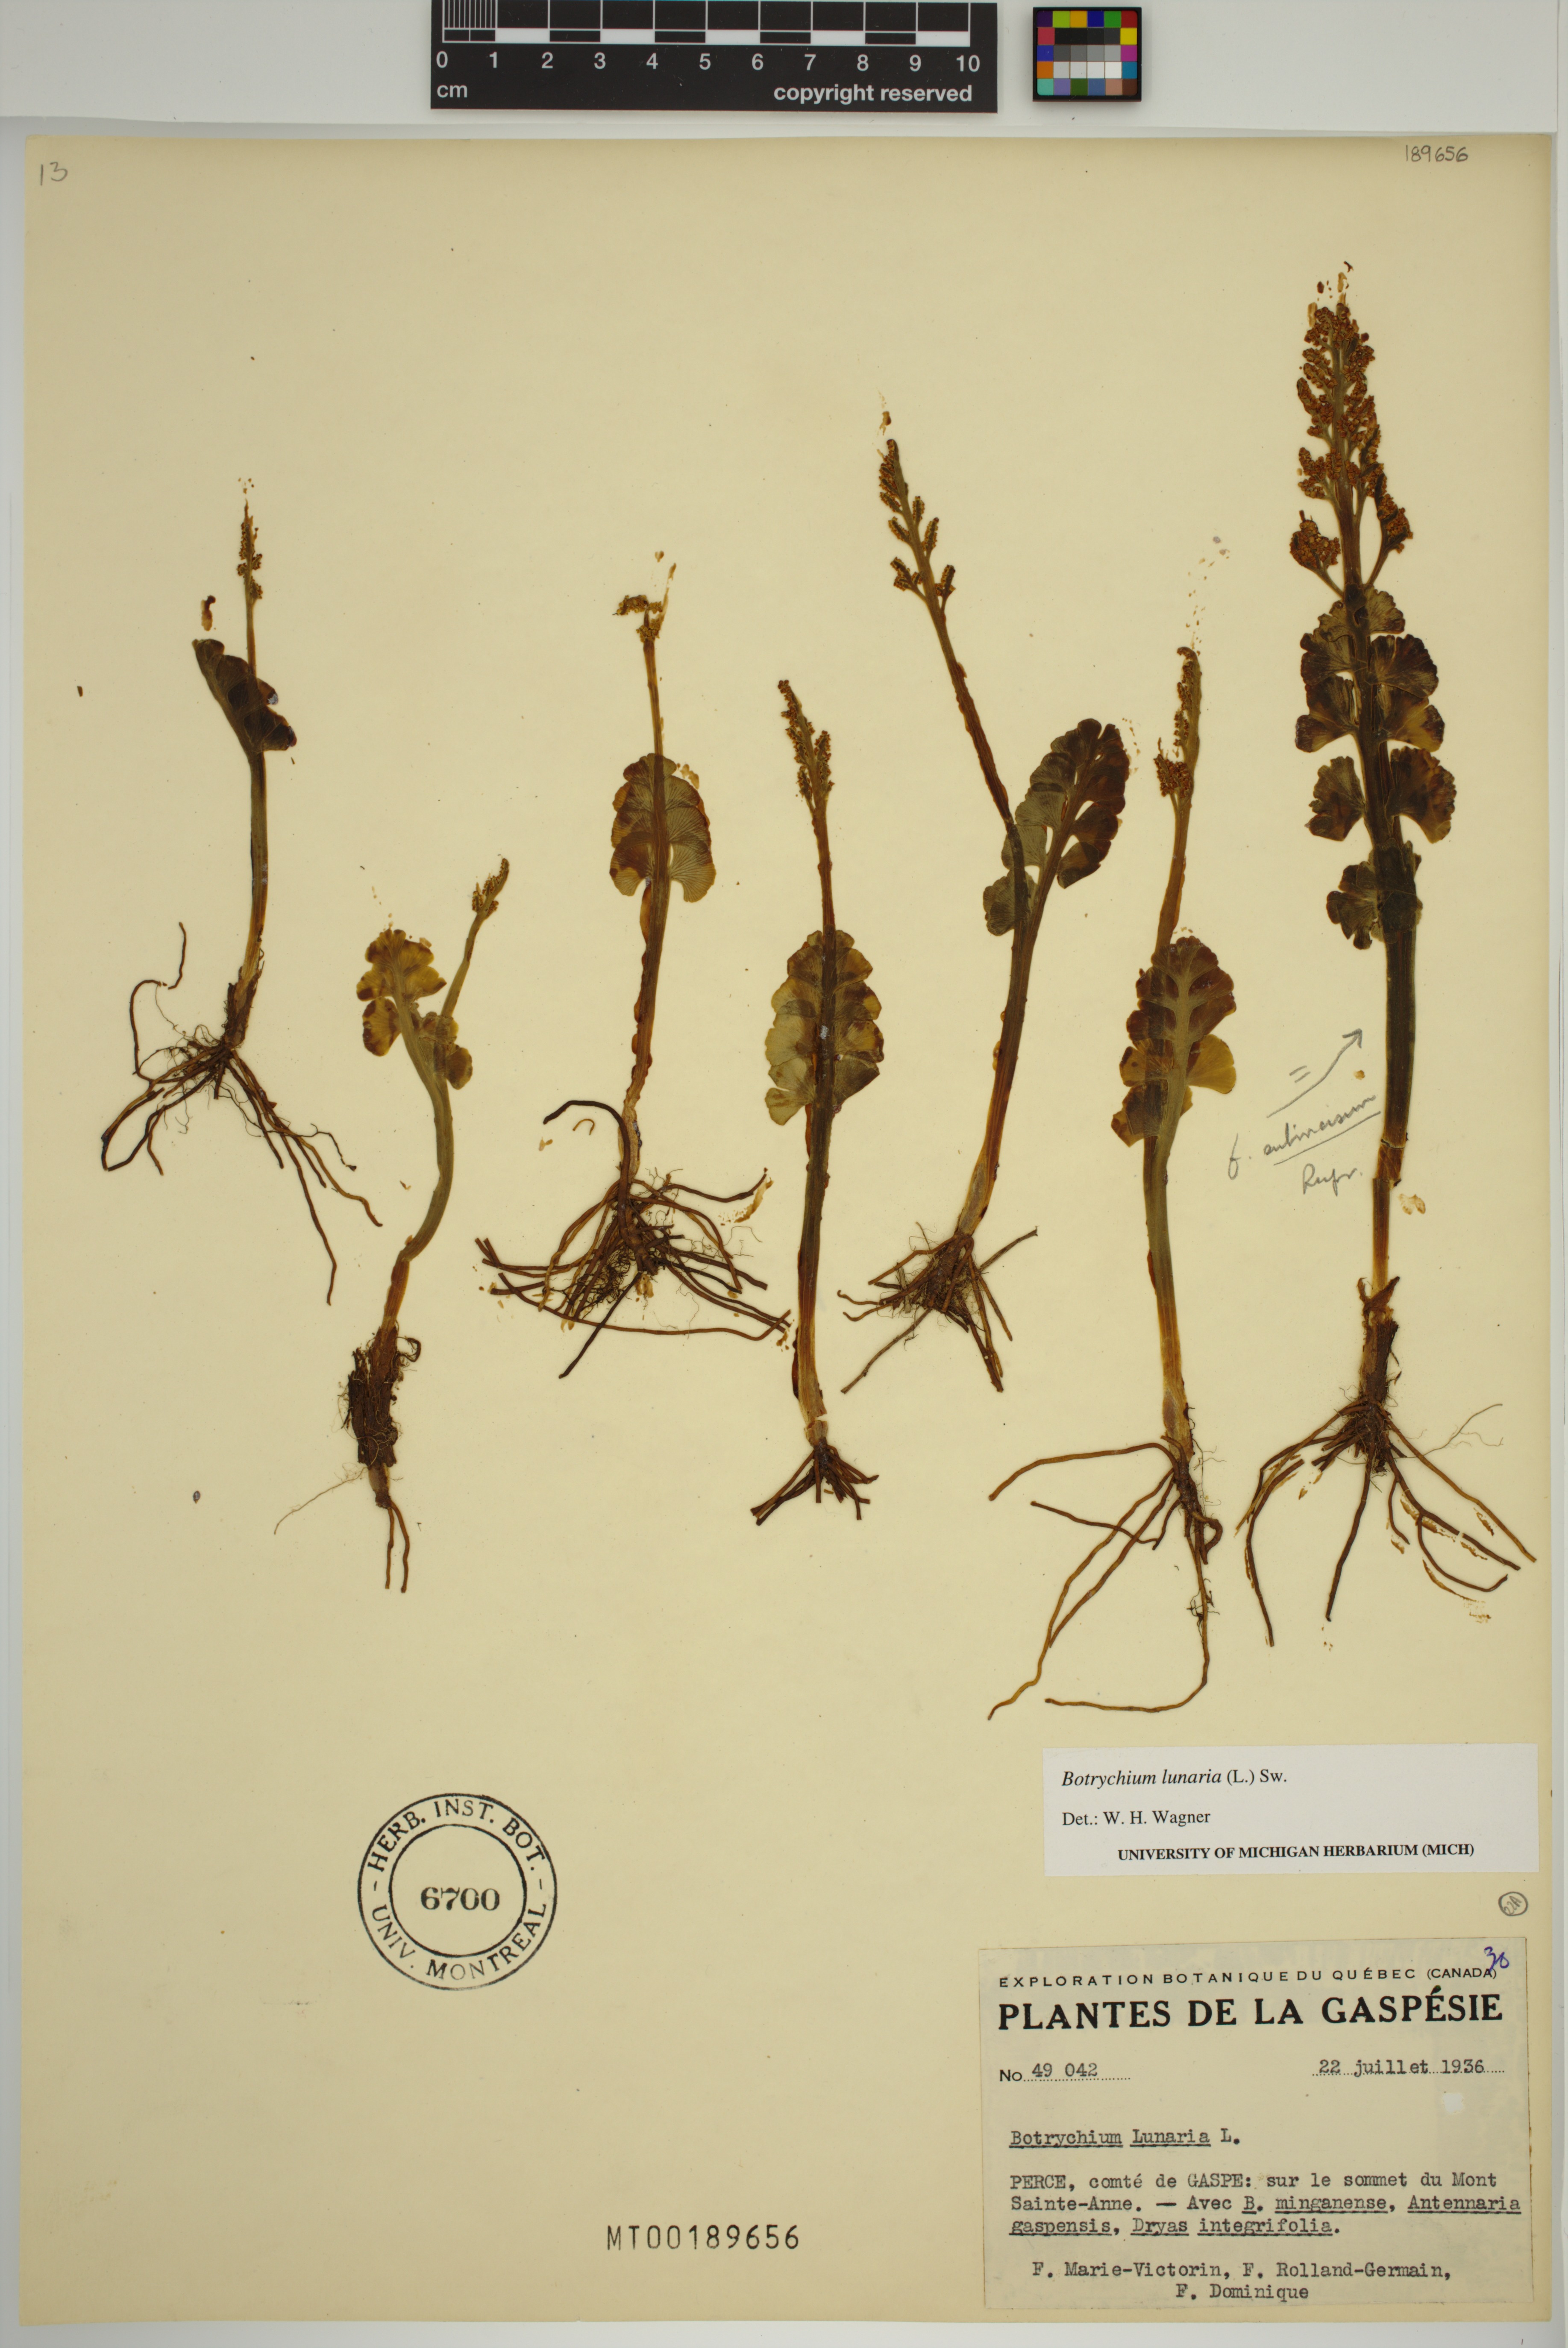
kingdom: Plantae
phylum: Tracheophyta
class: Polypodiopsida
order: Ophioglossales
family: Ophioglossaceae
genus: Botrychium
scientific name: Botrychium lunaria
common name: Moonwort
